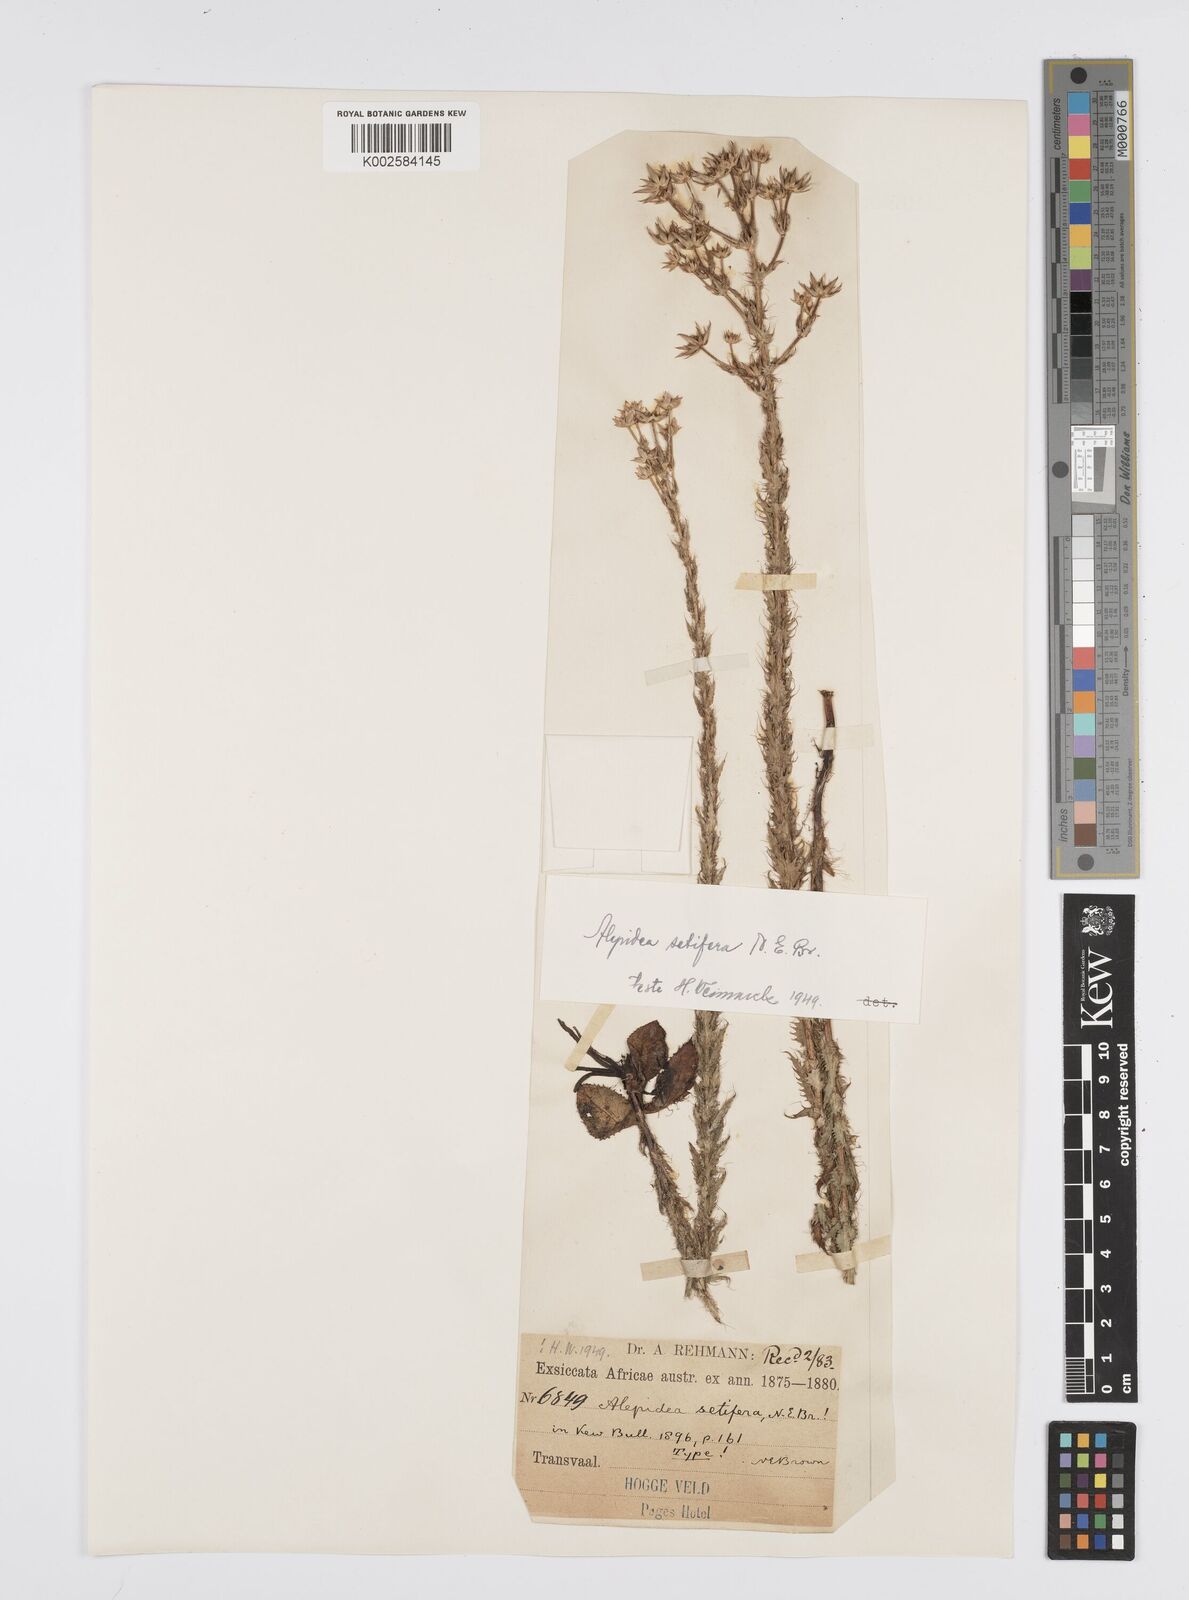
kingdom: Plantae
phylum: Tracheophyta
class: Magnoliopsida
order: Apiales
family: Apiaceae
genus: Alepidea
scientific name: Alepidea setifera
